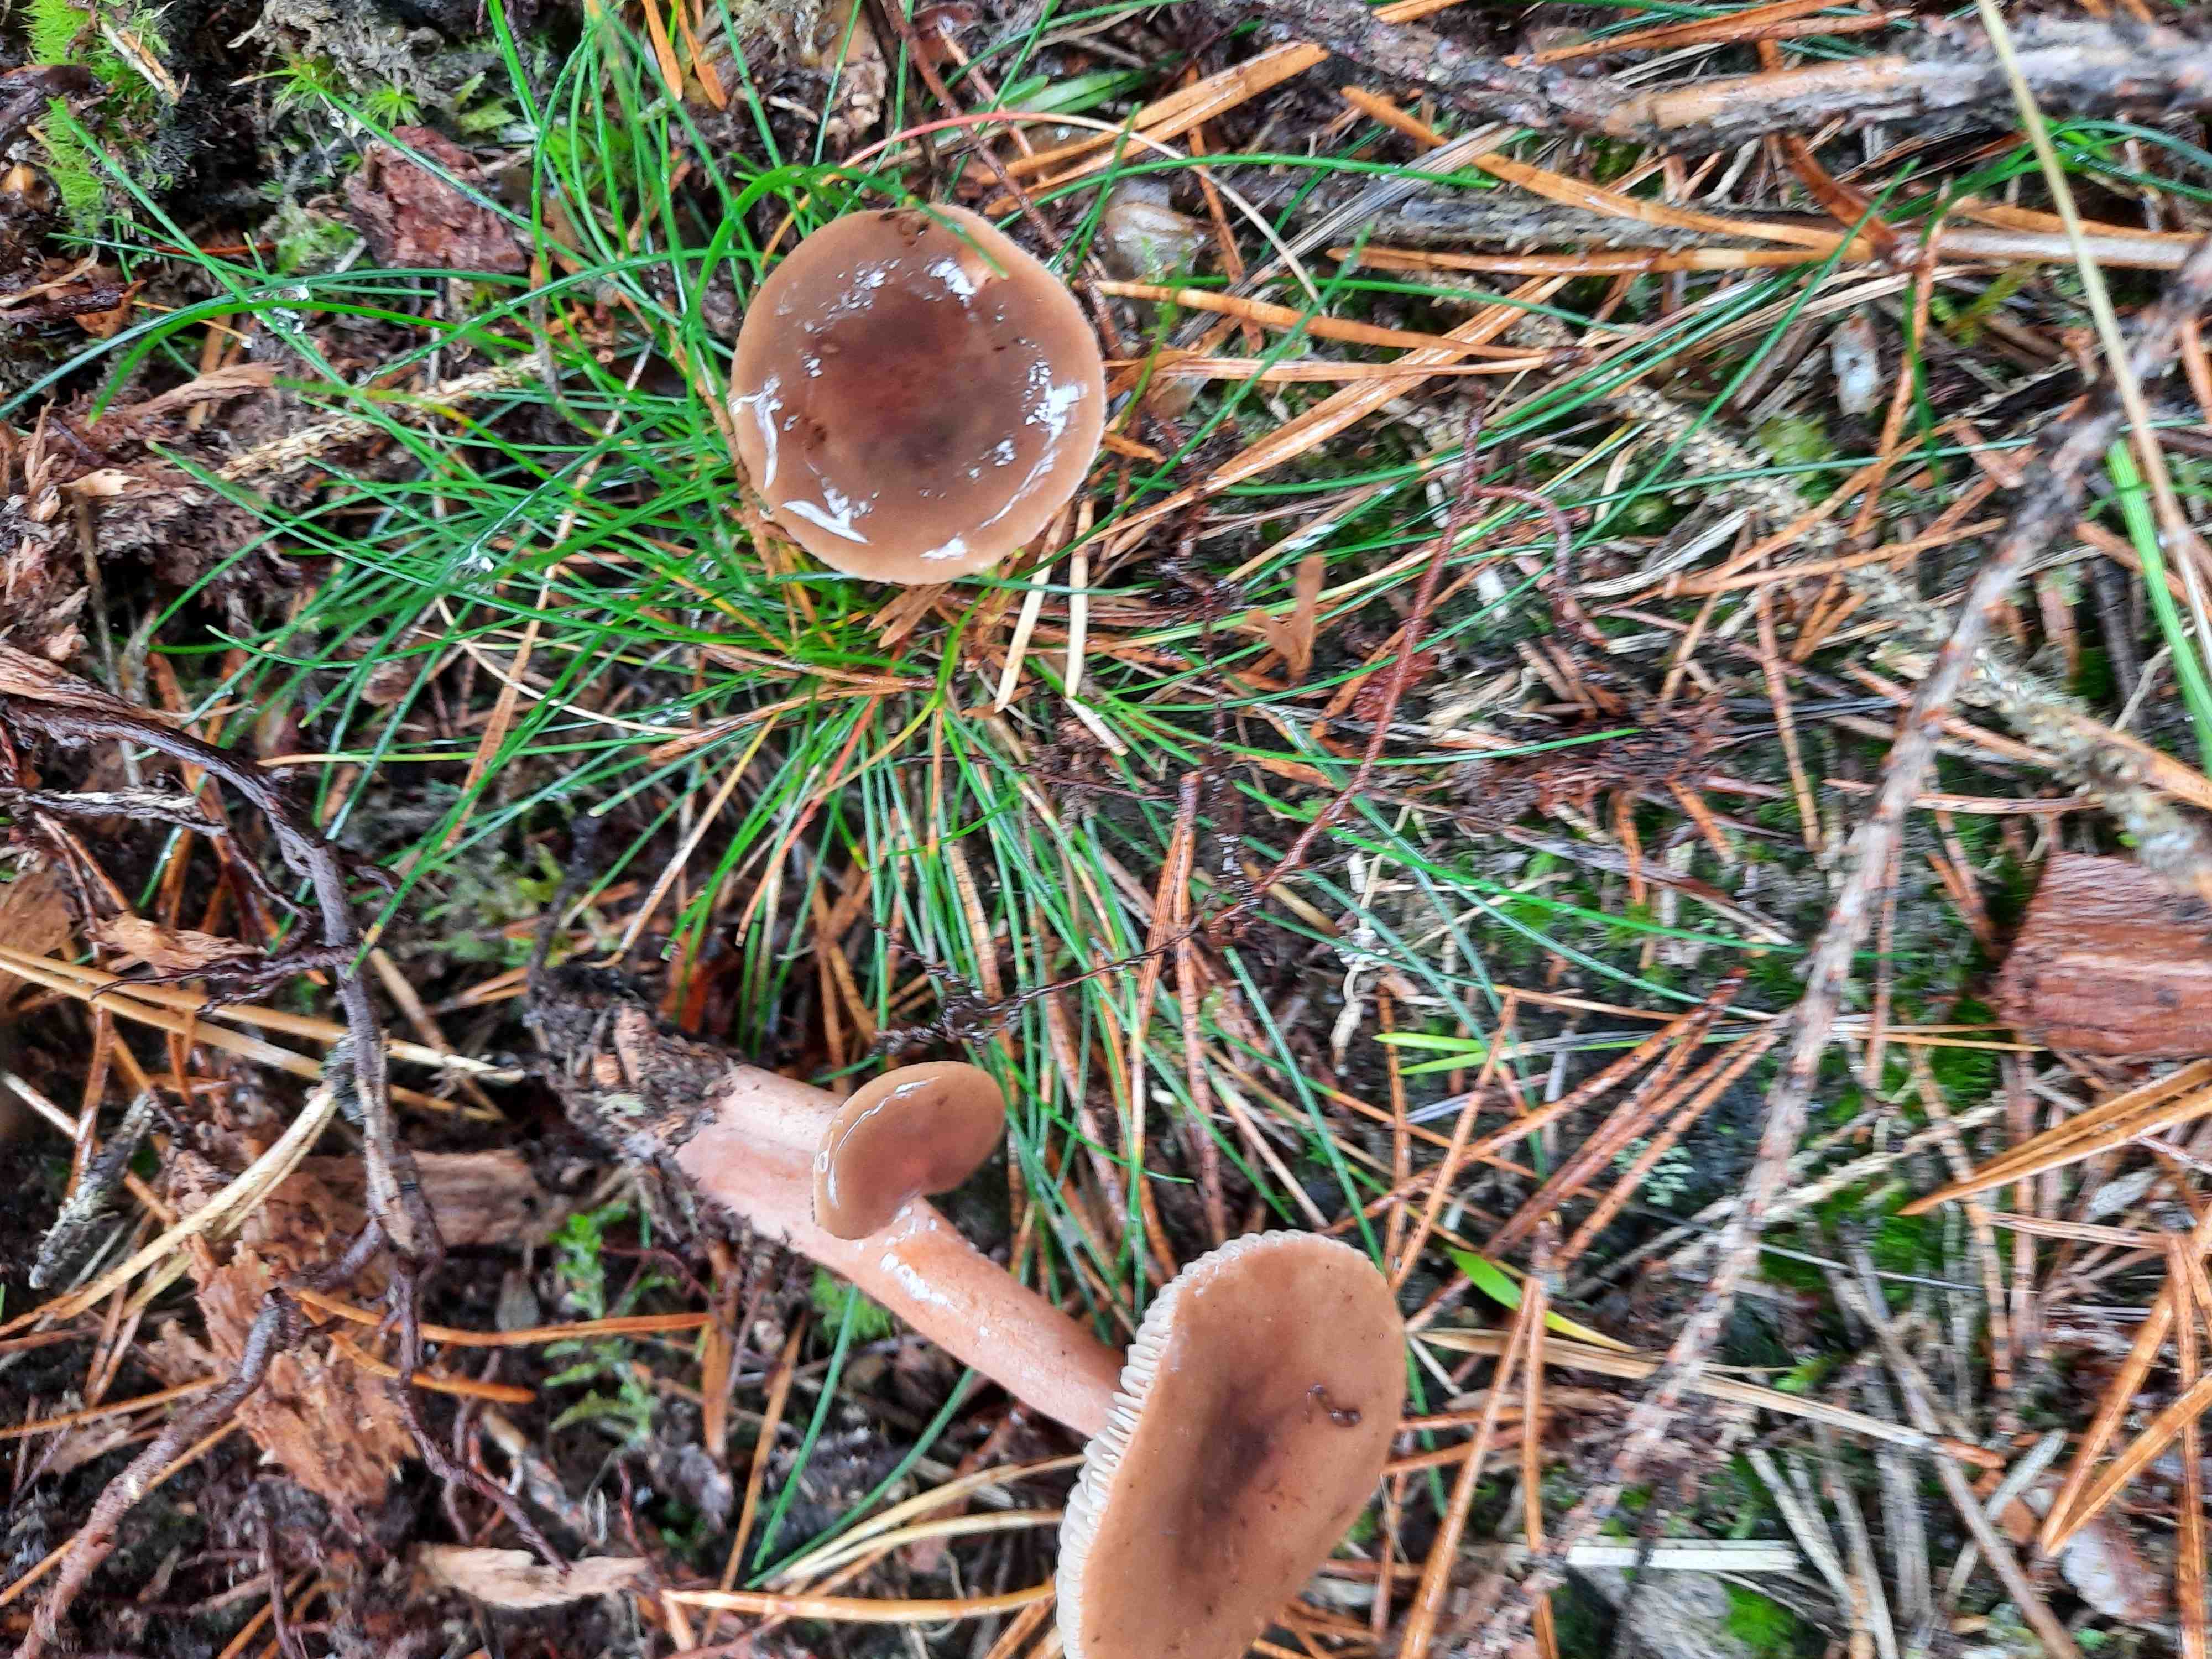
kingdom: Fungi
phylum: Basidiomycota
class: Agaricomycetes
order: Russulales
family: Russulaceae
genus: Lactarius
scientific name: Lactarius hepaticus
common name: leverbrun mælkehat
